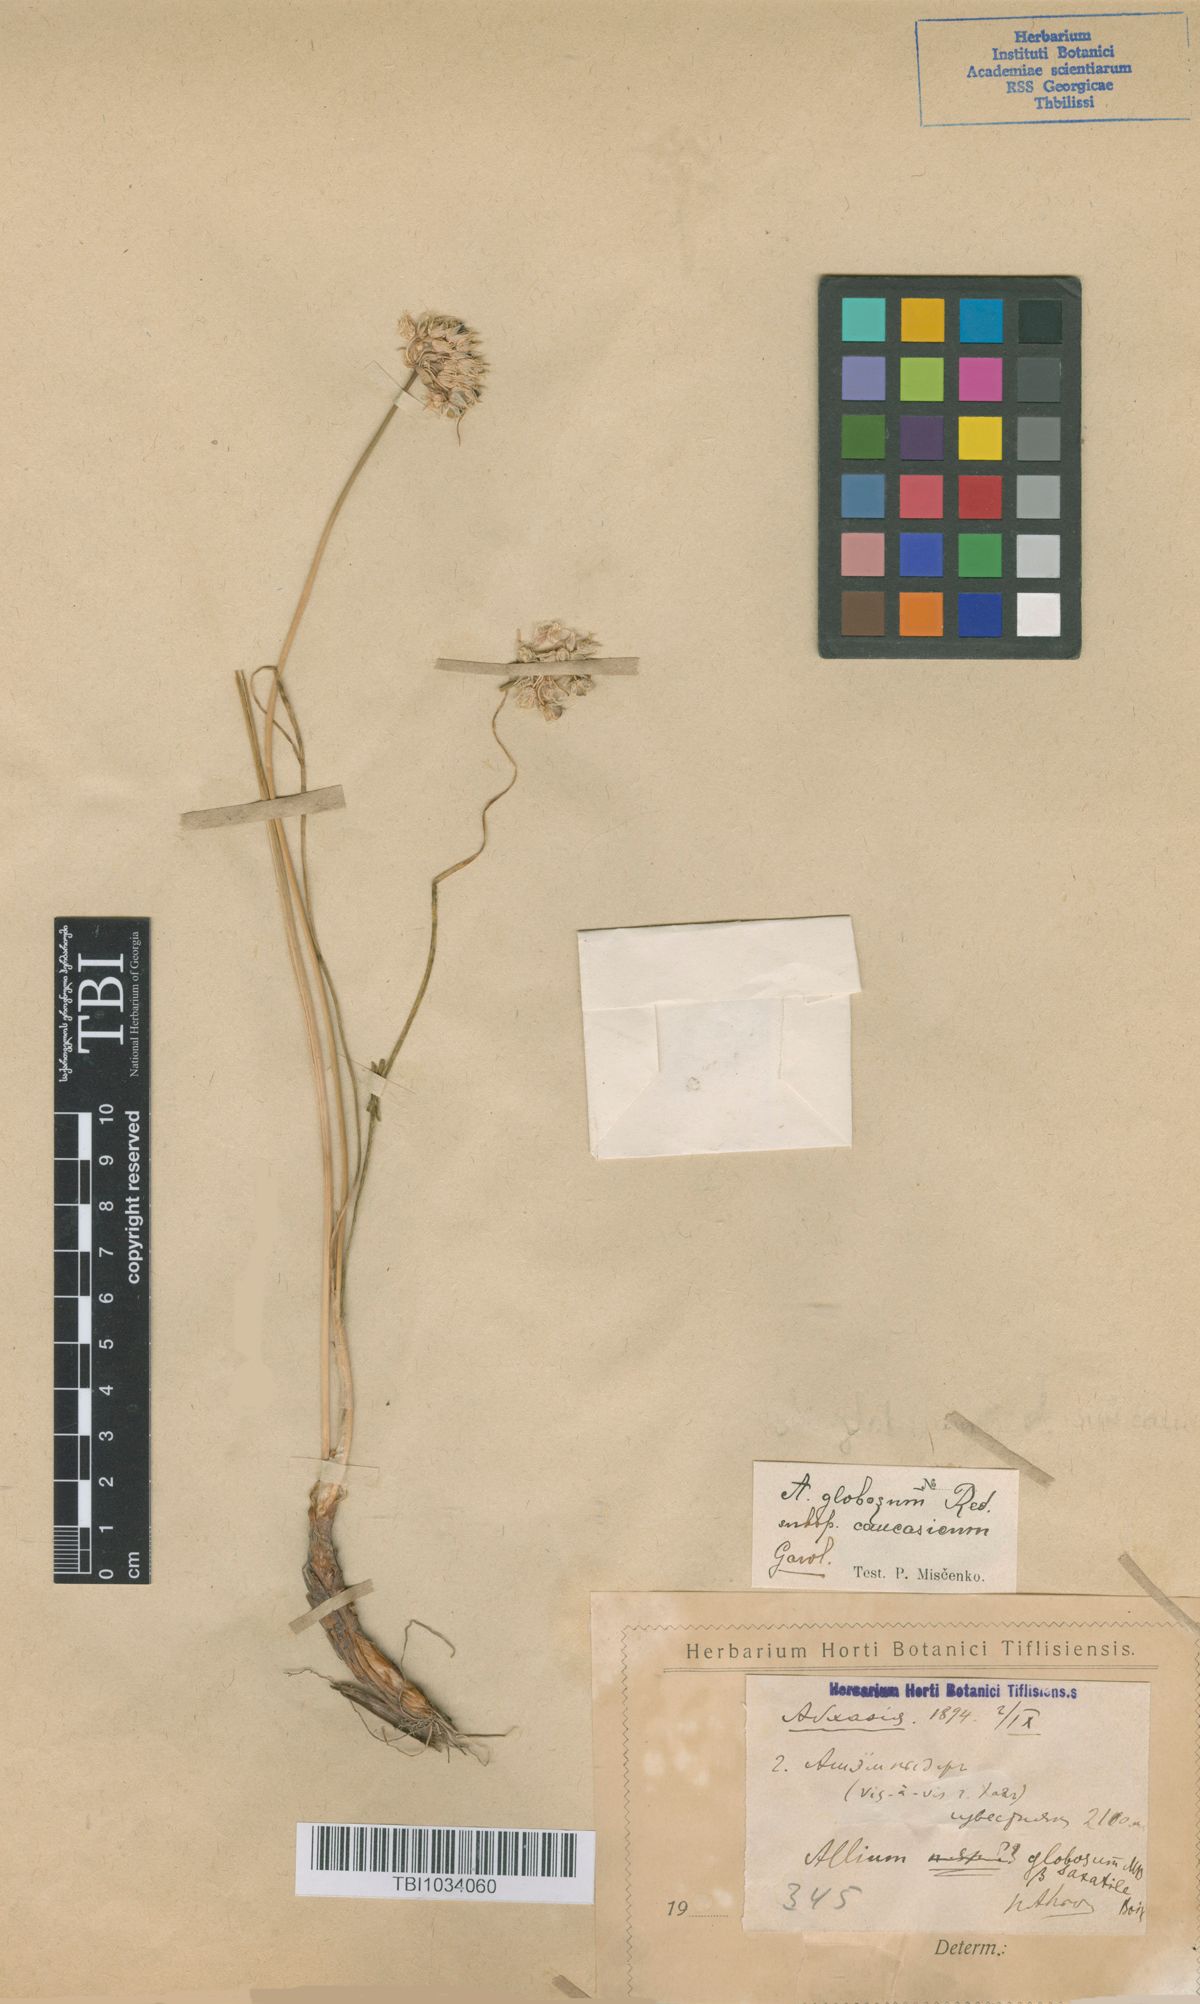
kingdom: Plantae
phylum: Tracheophyta
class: Liliopsida
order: Asparagales
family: Amaryllidaceae
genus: Allium
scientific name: Allium saxatile
